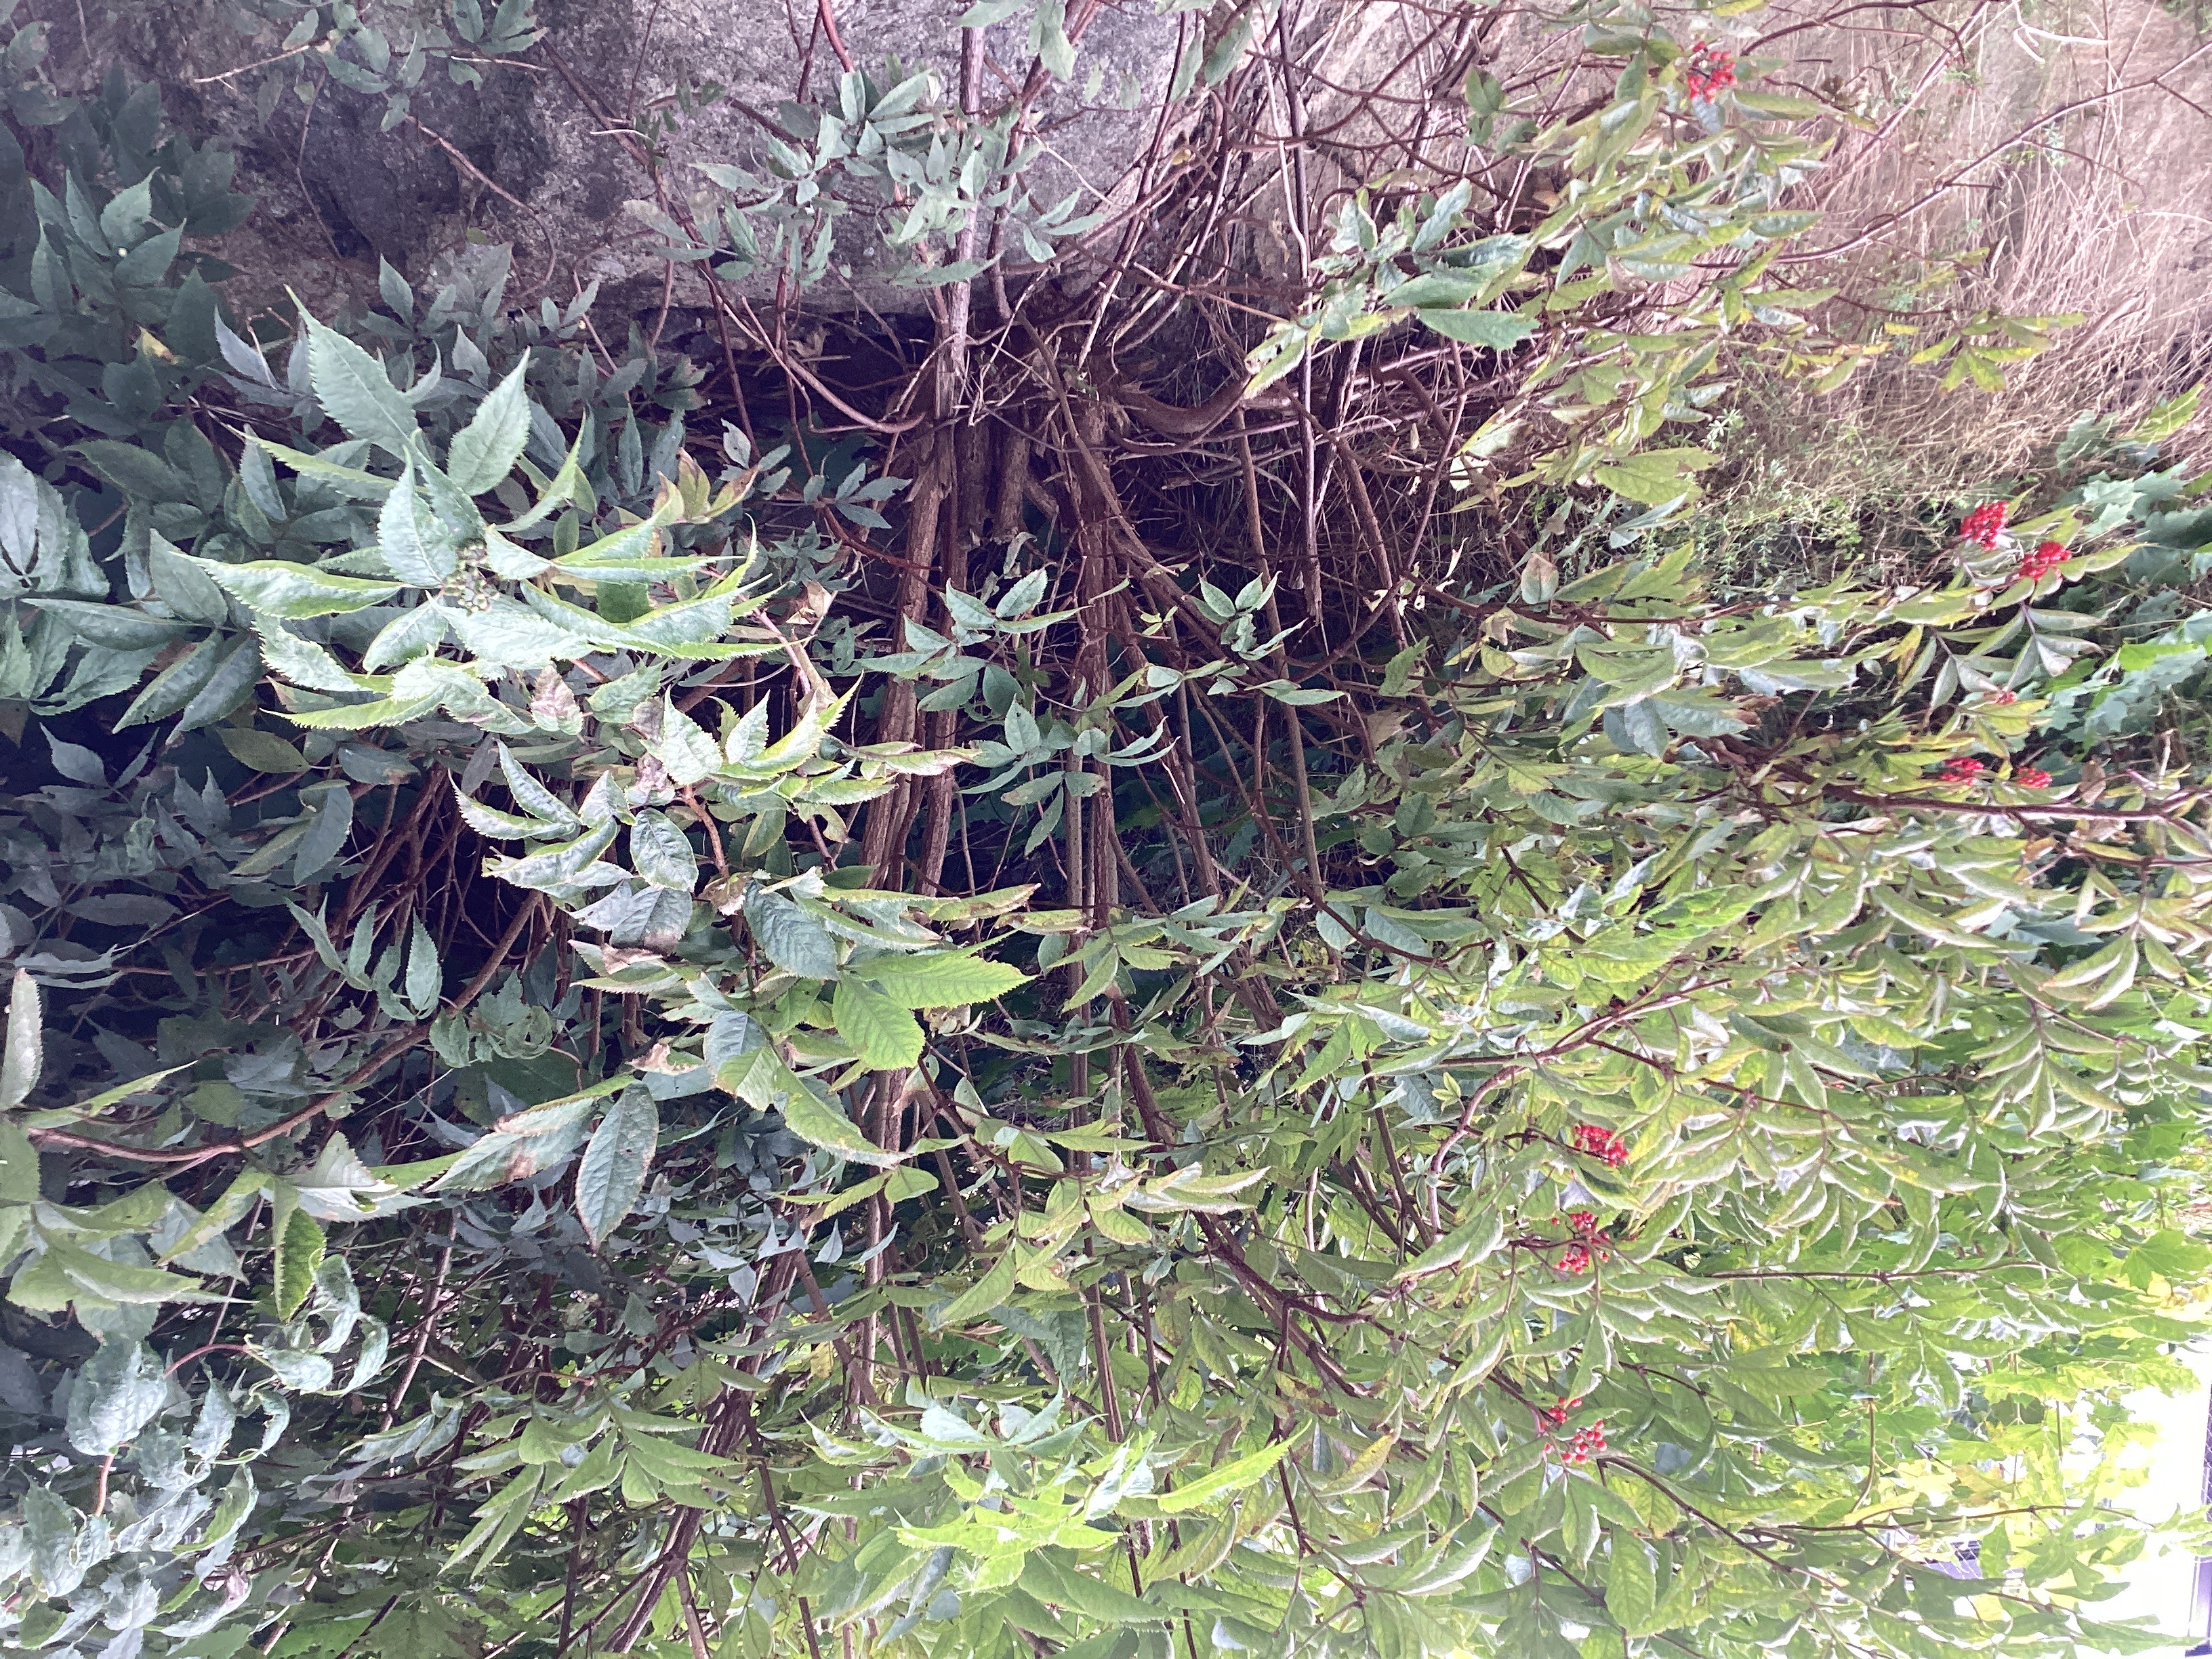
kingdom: Plantae
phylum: Tracheophyta
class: Magnoliopsida
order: Dipsacales
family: Viburnaceae
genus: Sambucus
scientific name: Sambucus racemosa
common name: rødhyll
